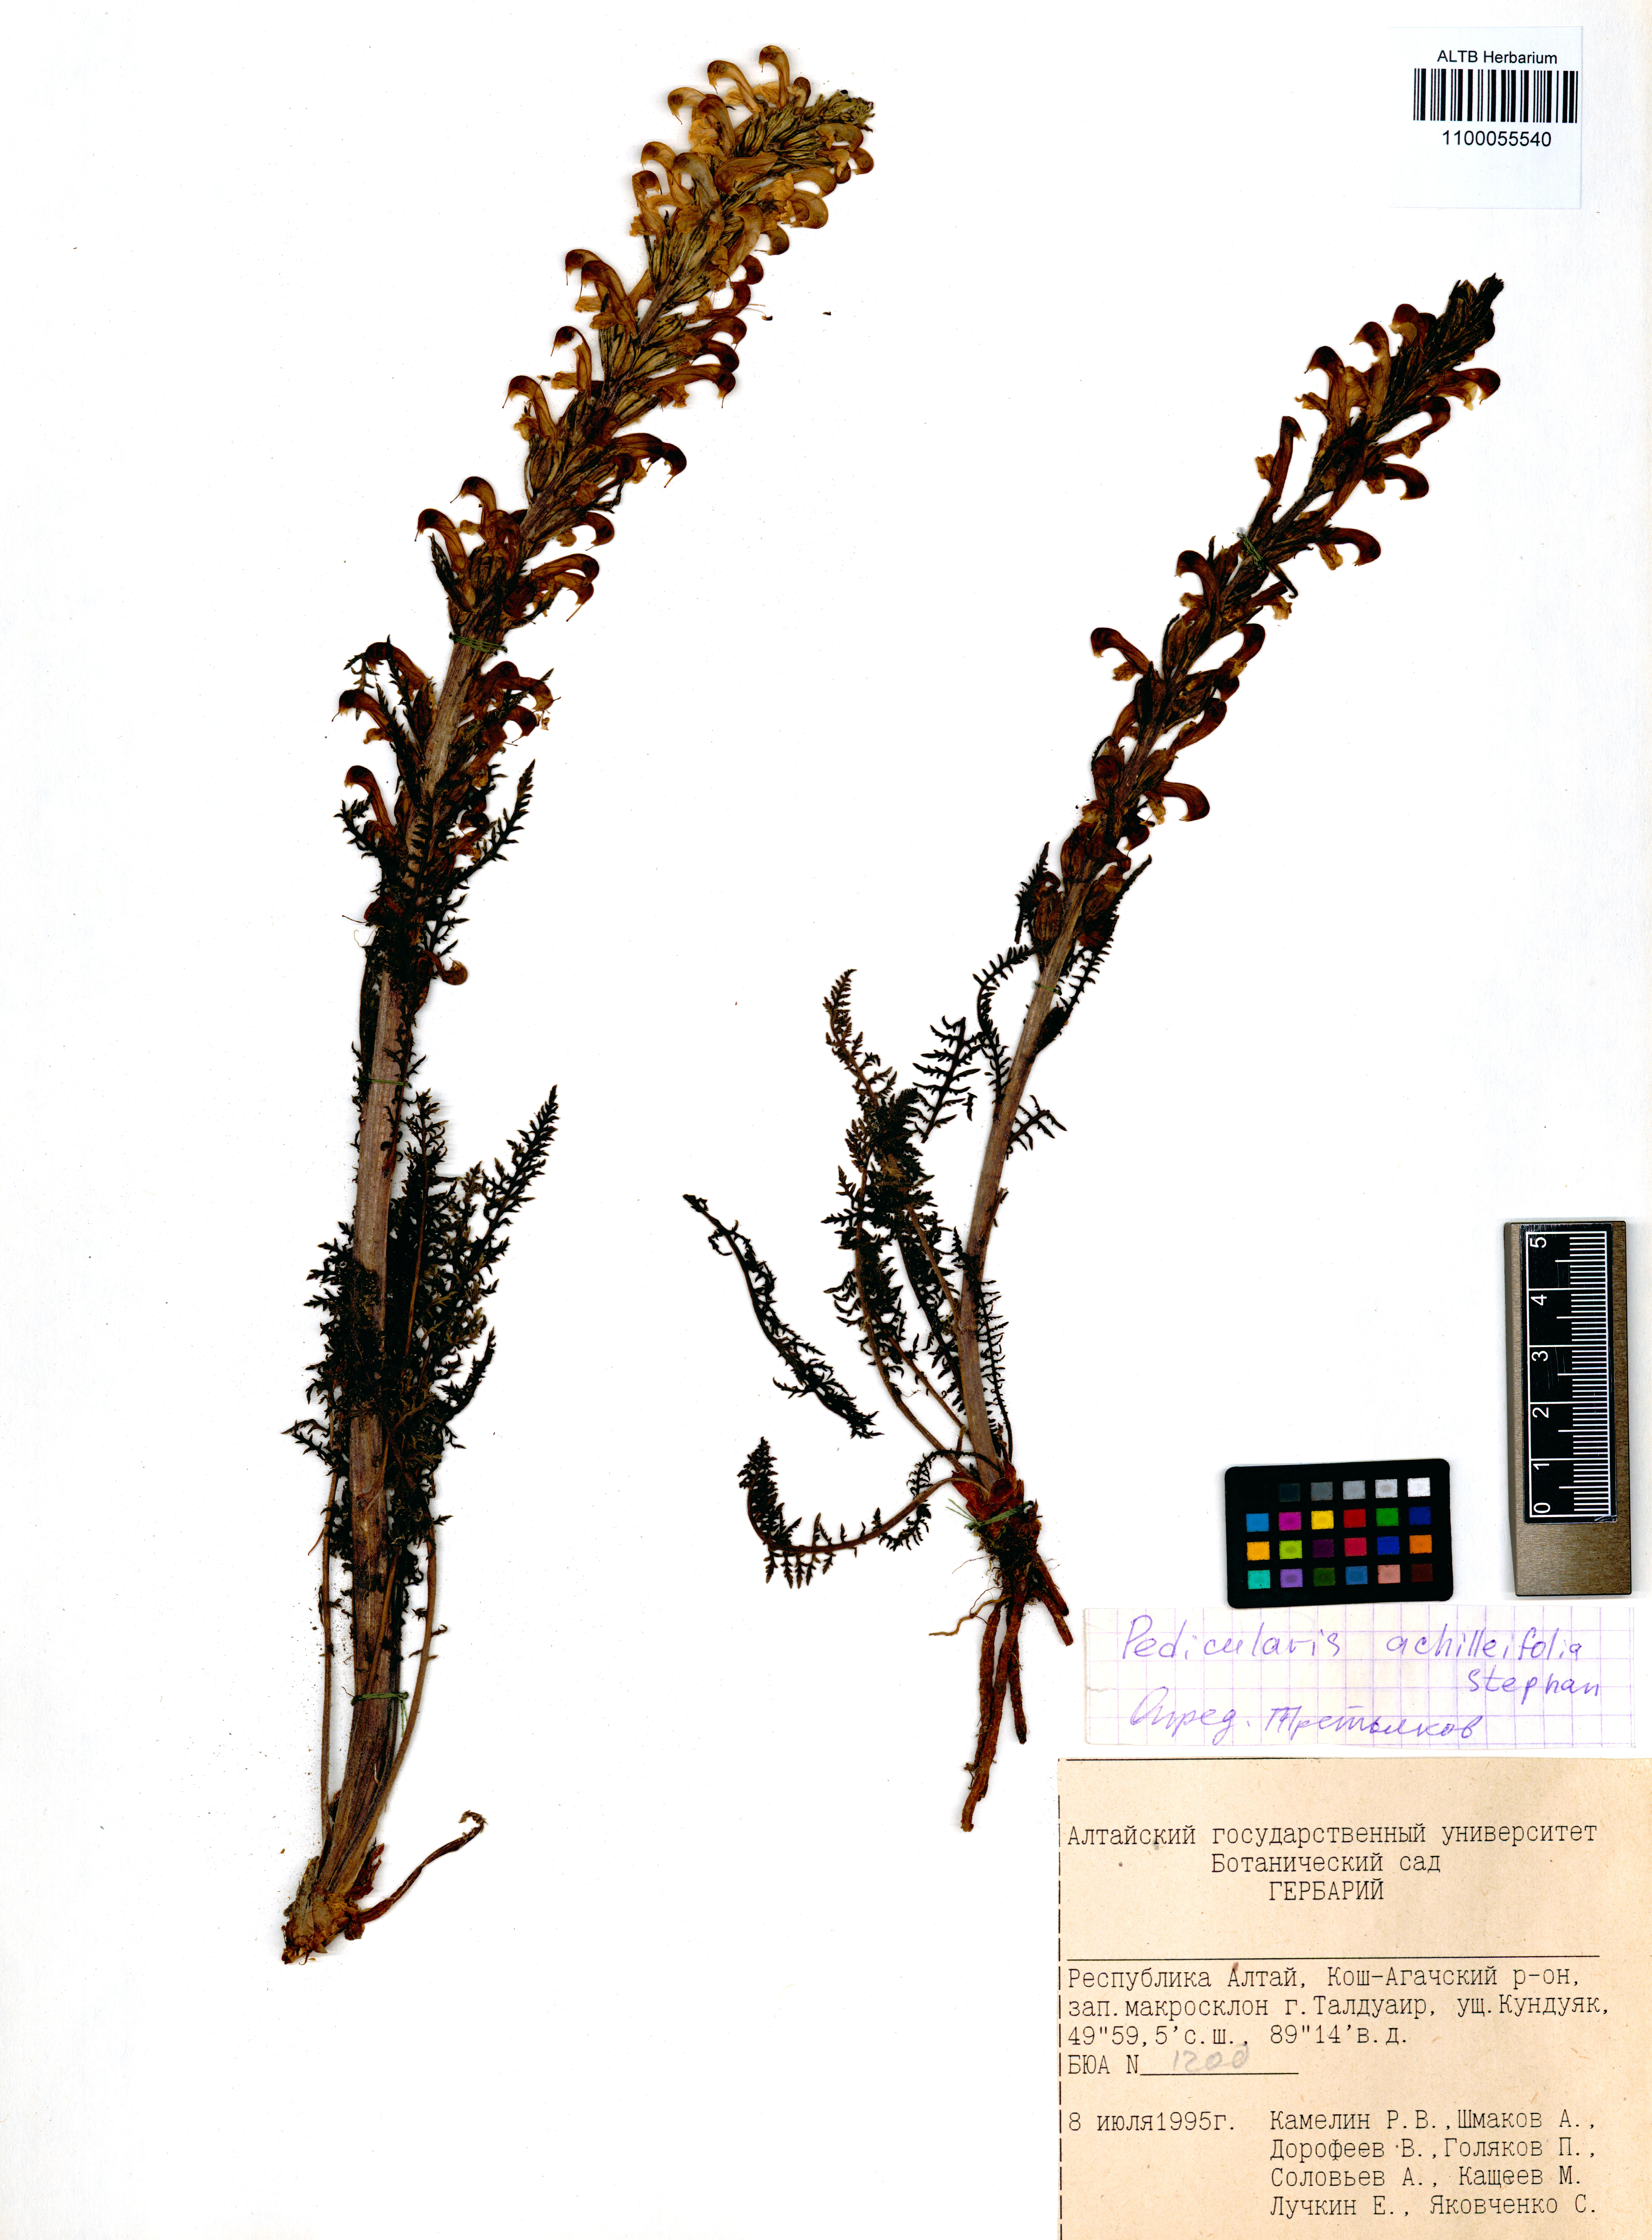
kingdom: Plantae
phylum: Tracheophyta
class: Magnoliopsida
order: Lamiales
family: Orobanchaceae
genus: Pedicularis
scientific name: Pedicularis achilleifolia
